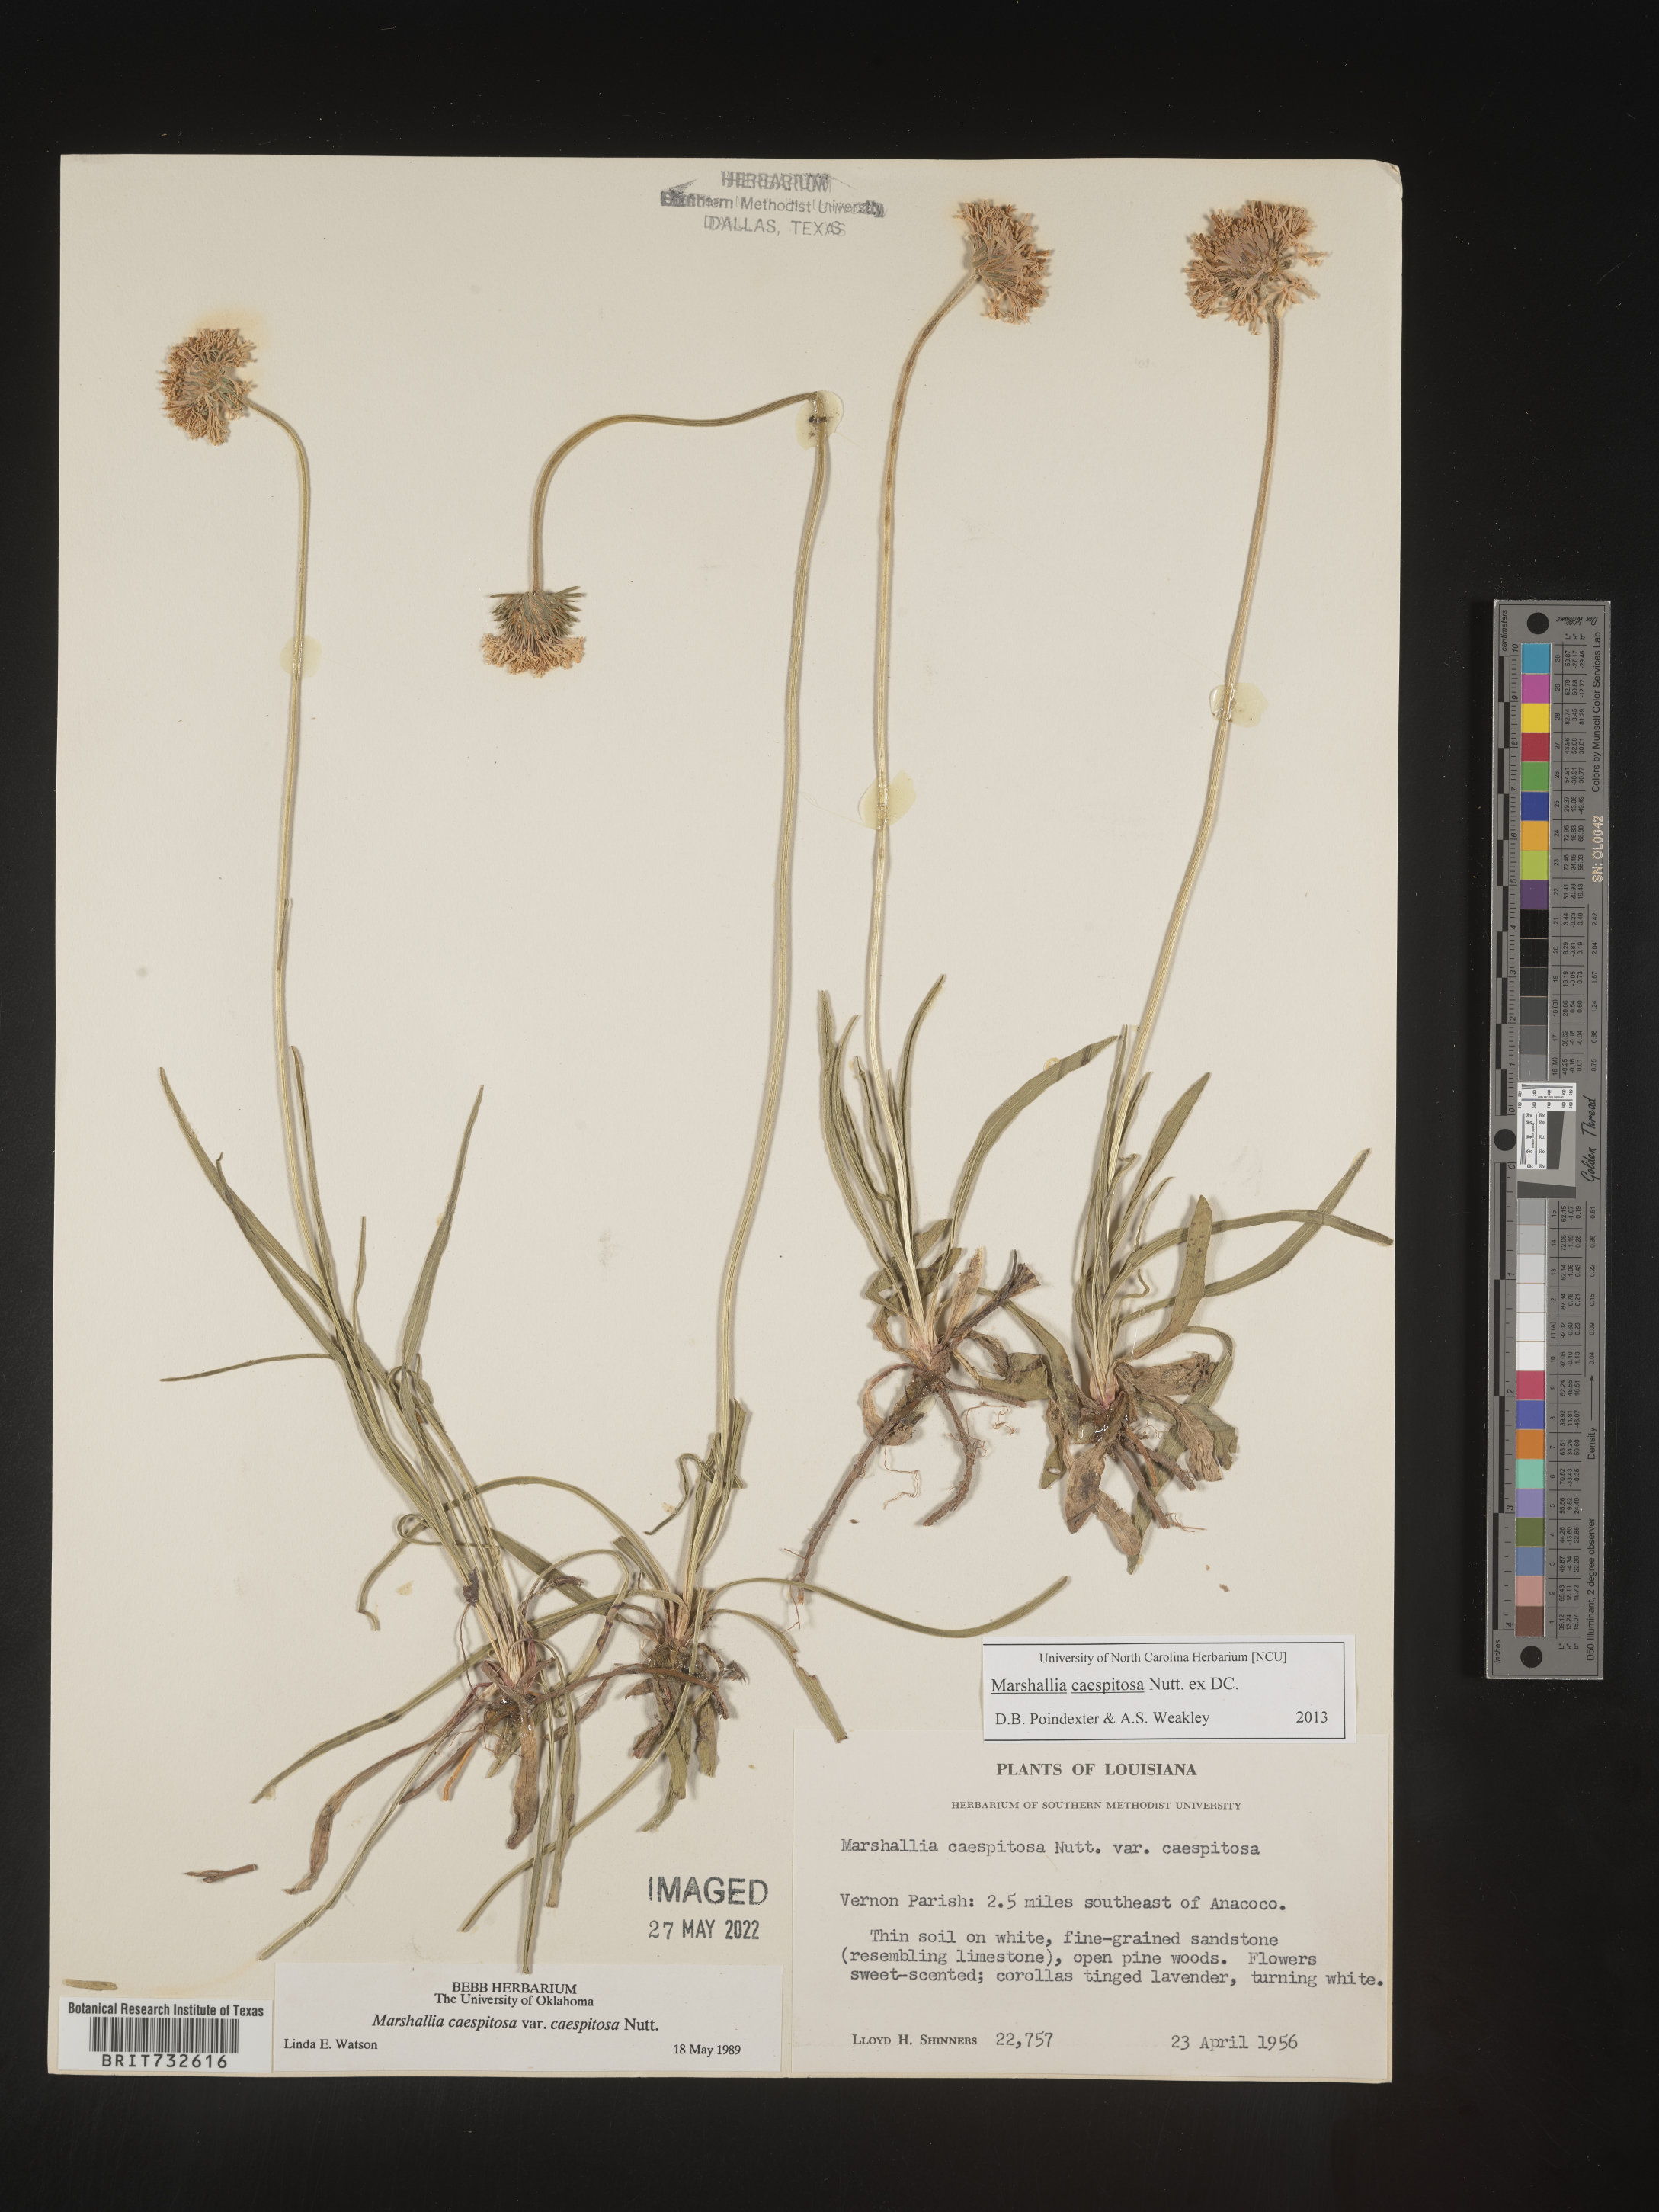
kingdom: Plantae
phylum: Tracheophyta
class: Magnoliopsida
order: Asterales
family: Asteraceae
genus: Marshallia
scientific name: Marshallia caespitosa
